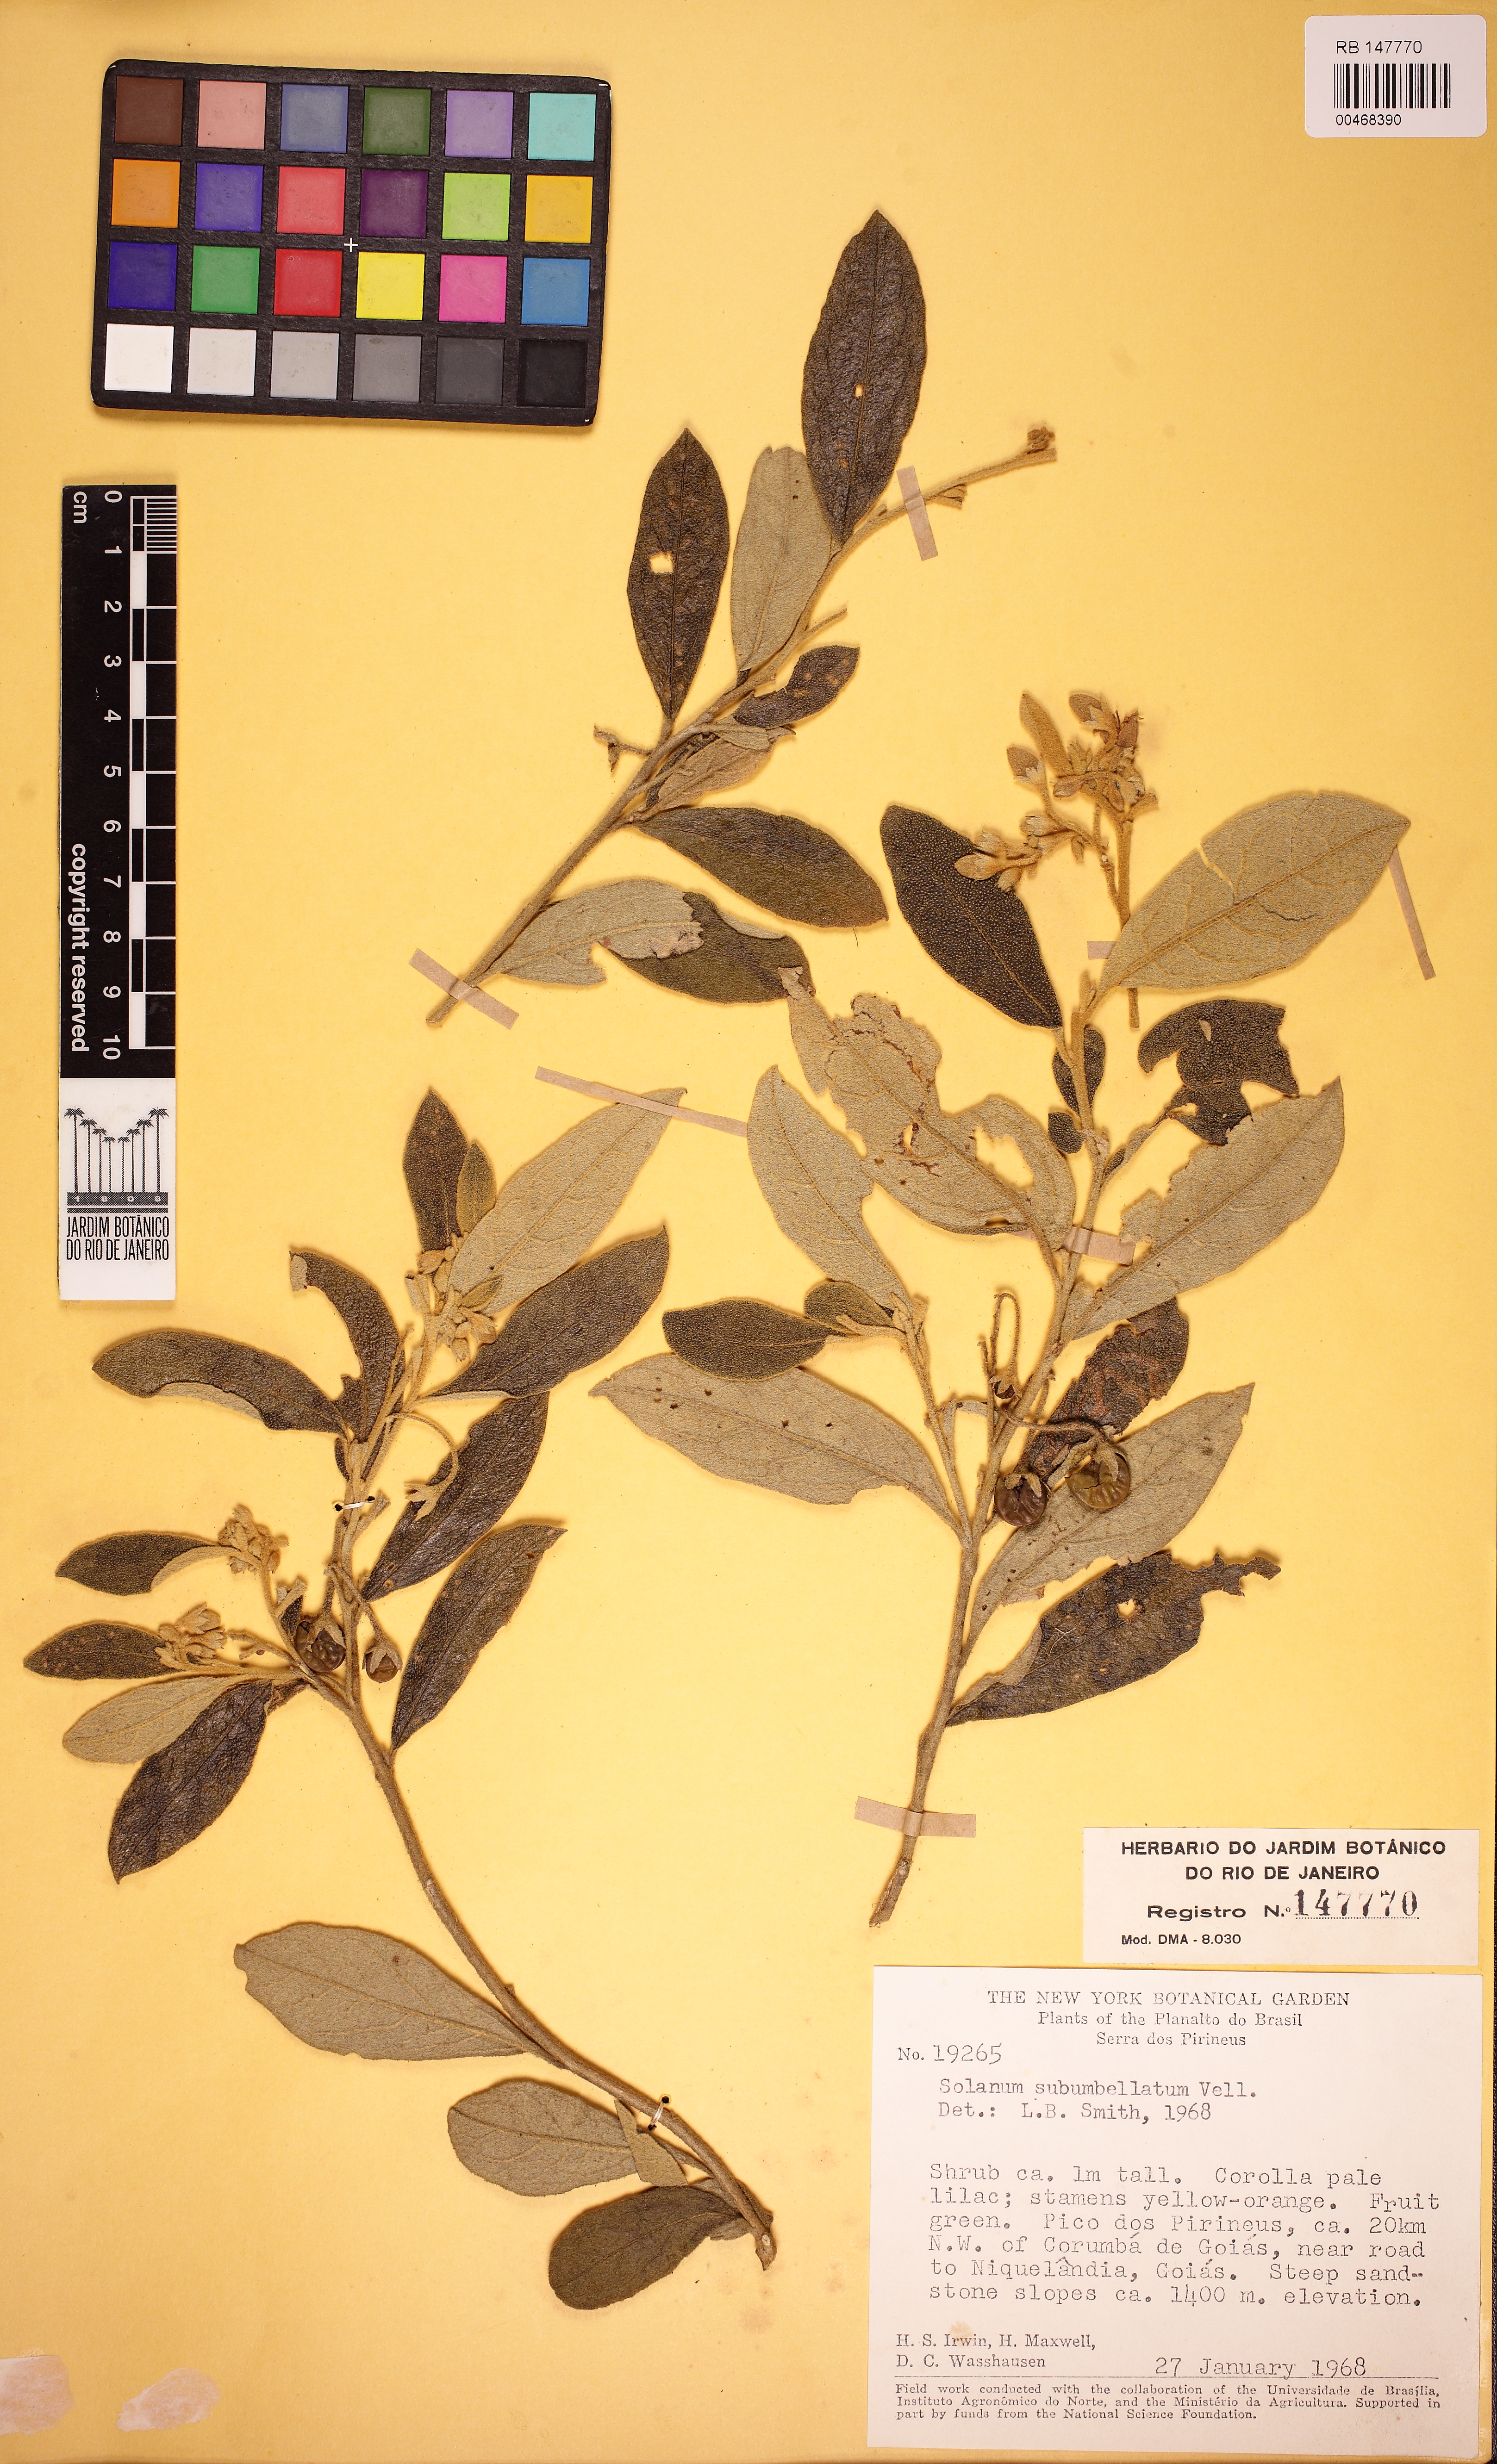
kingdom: Plantae
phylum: Tracheophyta
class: Magnoliopsida
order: Solanales
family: Solanaceae
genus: Solanum
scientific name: Solanum subumbellatum
